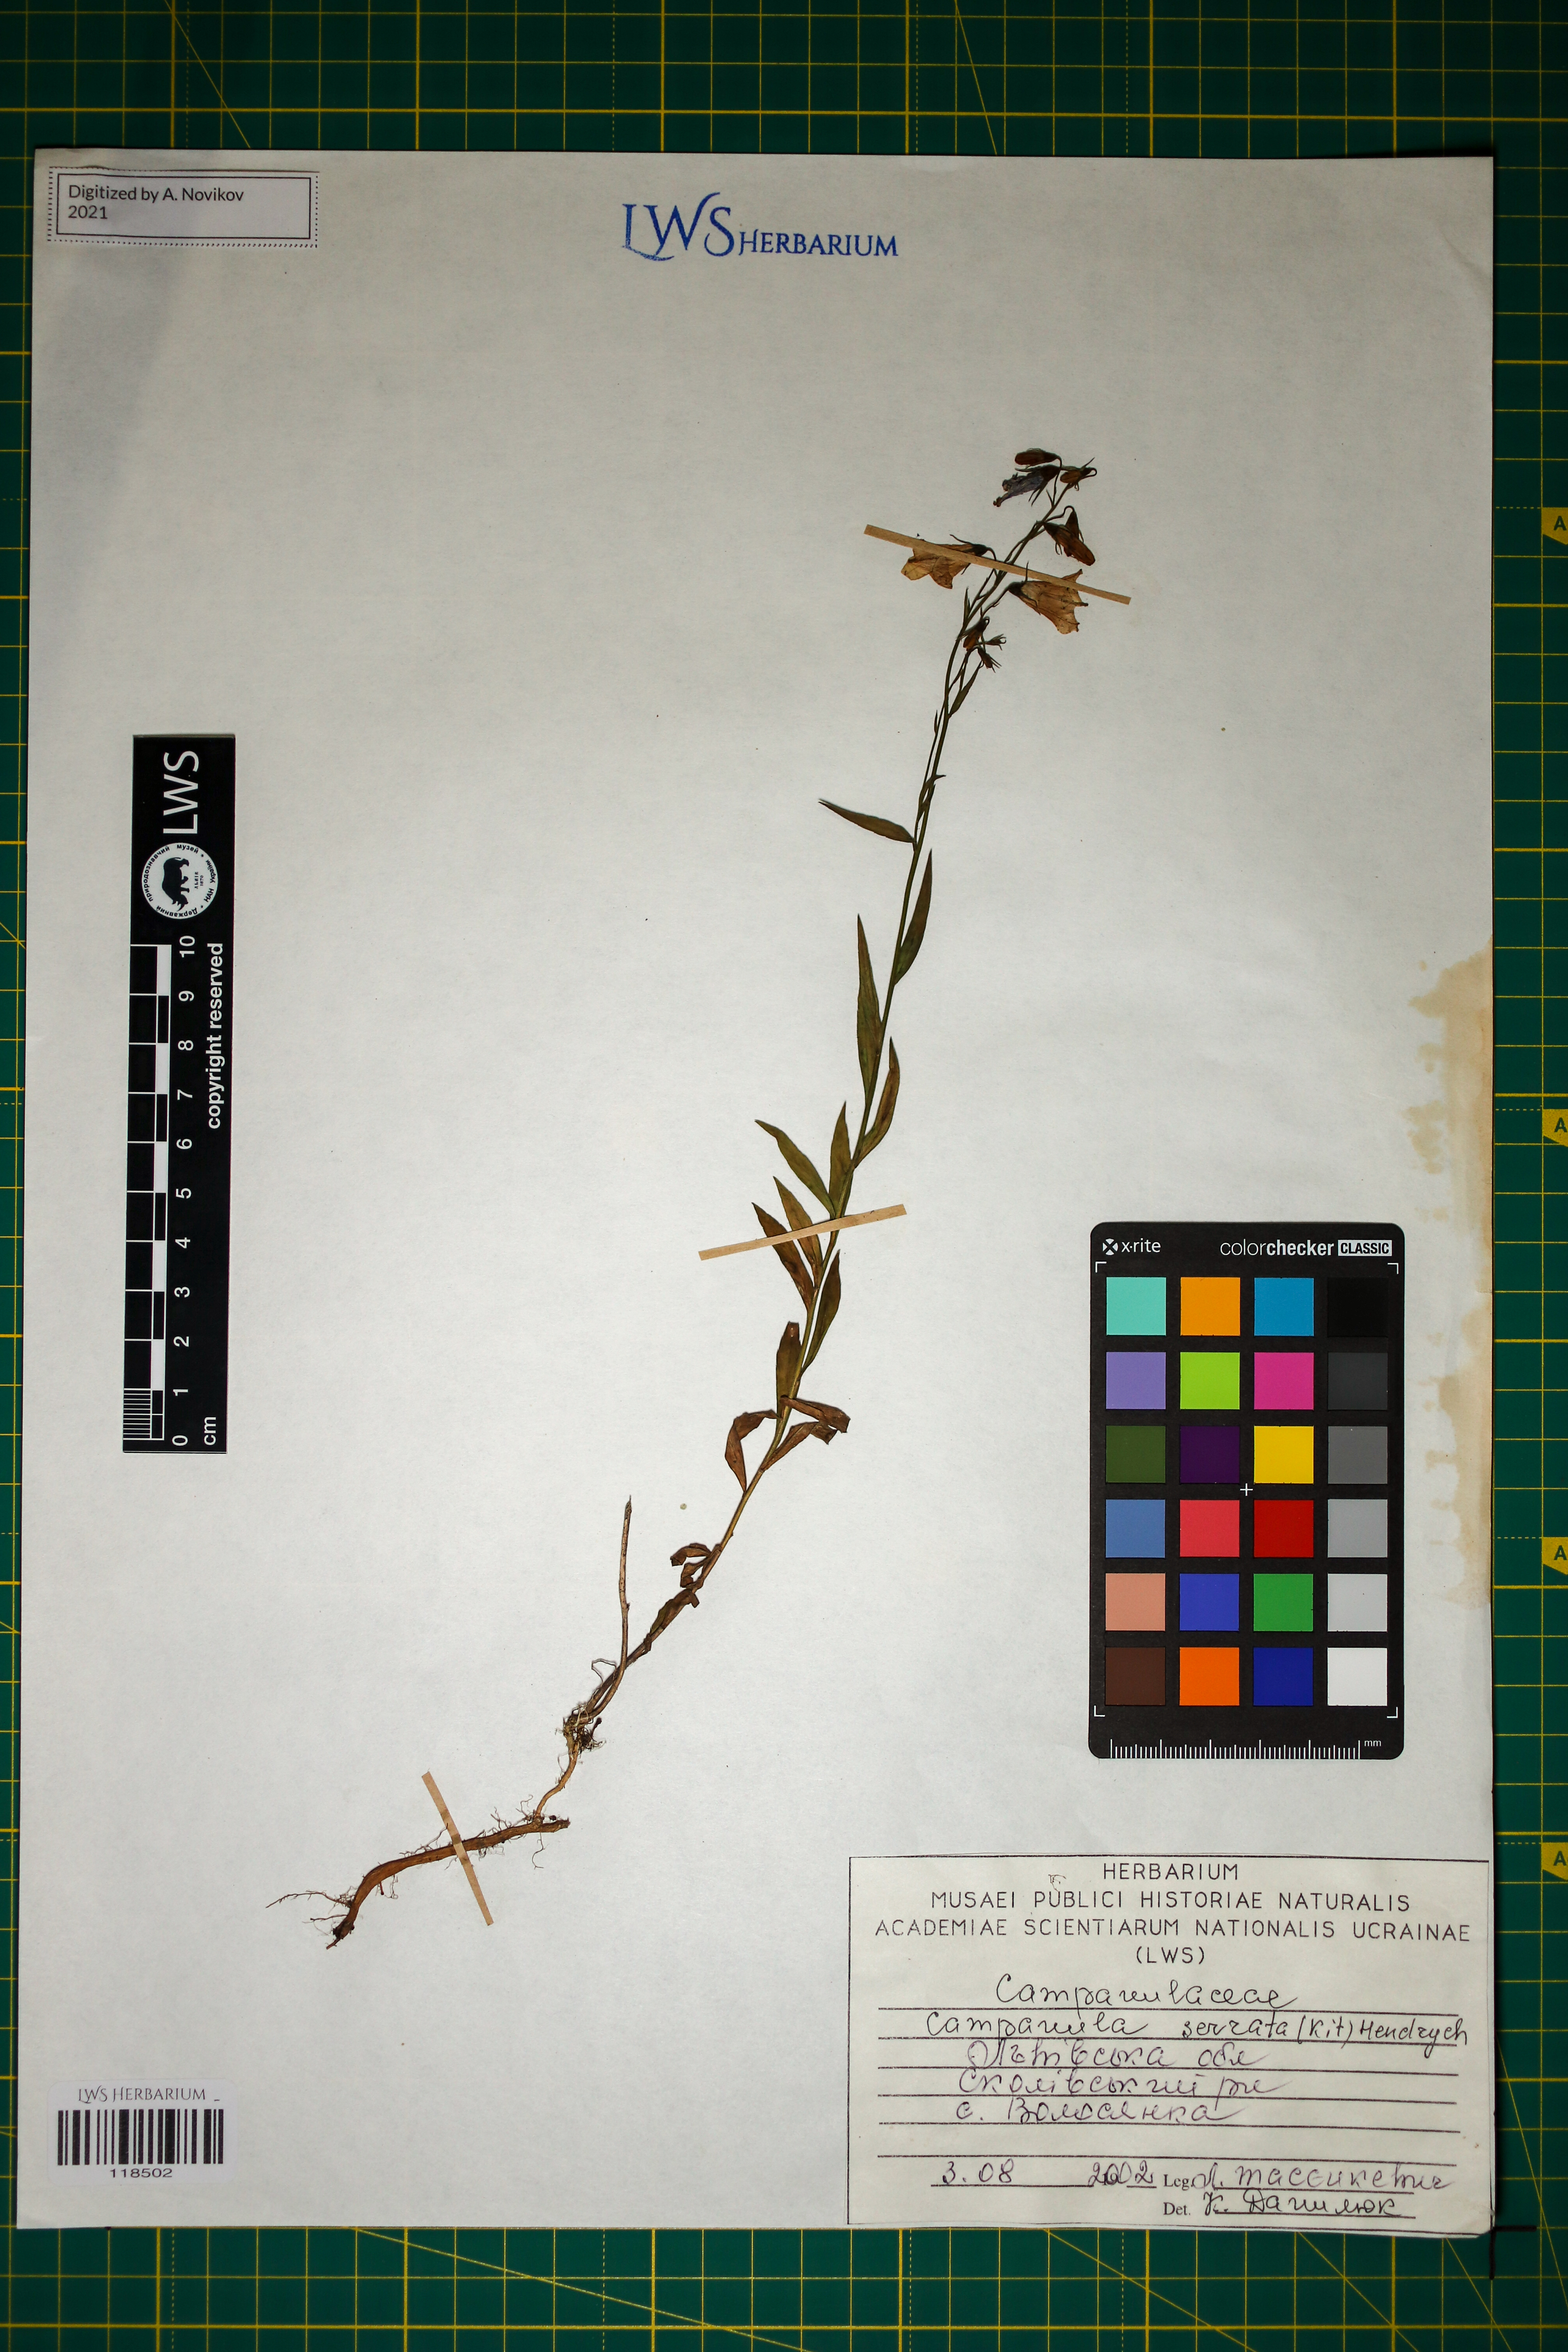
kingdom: Plantae
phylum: Tracheophyta
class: Magnoliopsida
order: Asterales
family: Campanulaceae
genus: Campanula
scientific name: Campanula serrata
